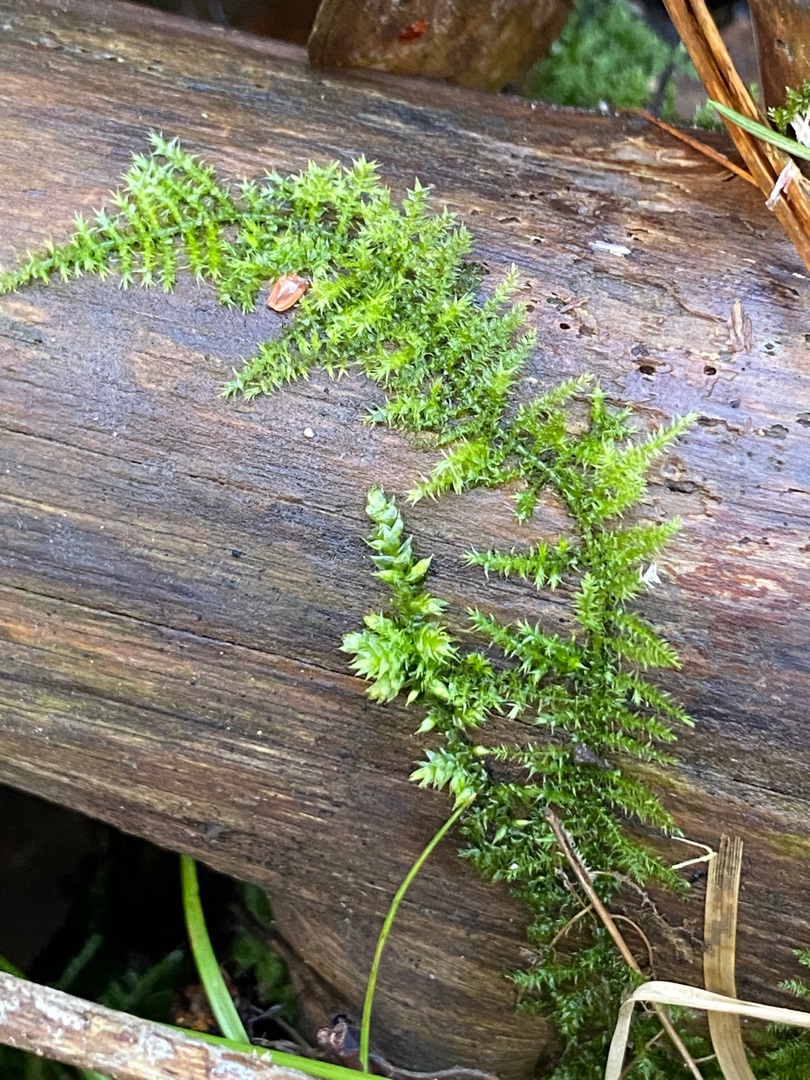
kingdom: Plantae
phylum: Bryophyta
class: Bryopsida
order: Hypnales
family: Brachytheciaceae
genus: Kindbergia
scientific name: Kindbergia praelonga
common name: Forskelligbladet vortetand
